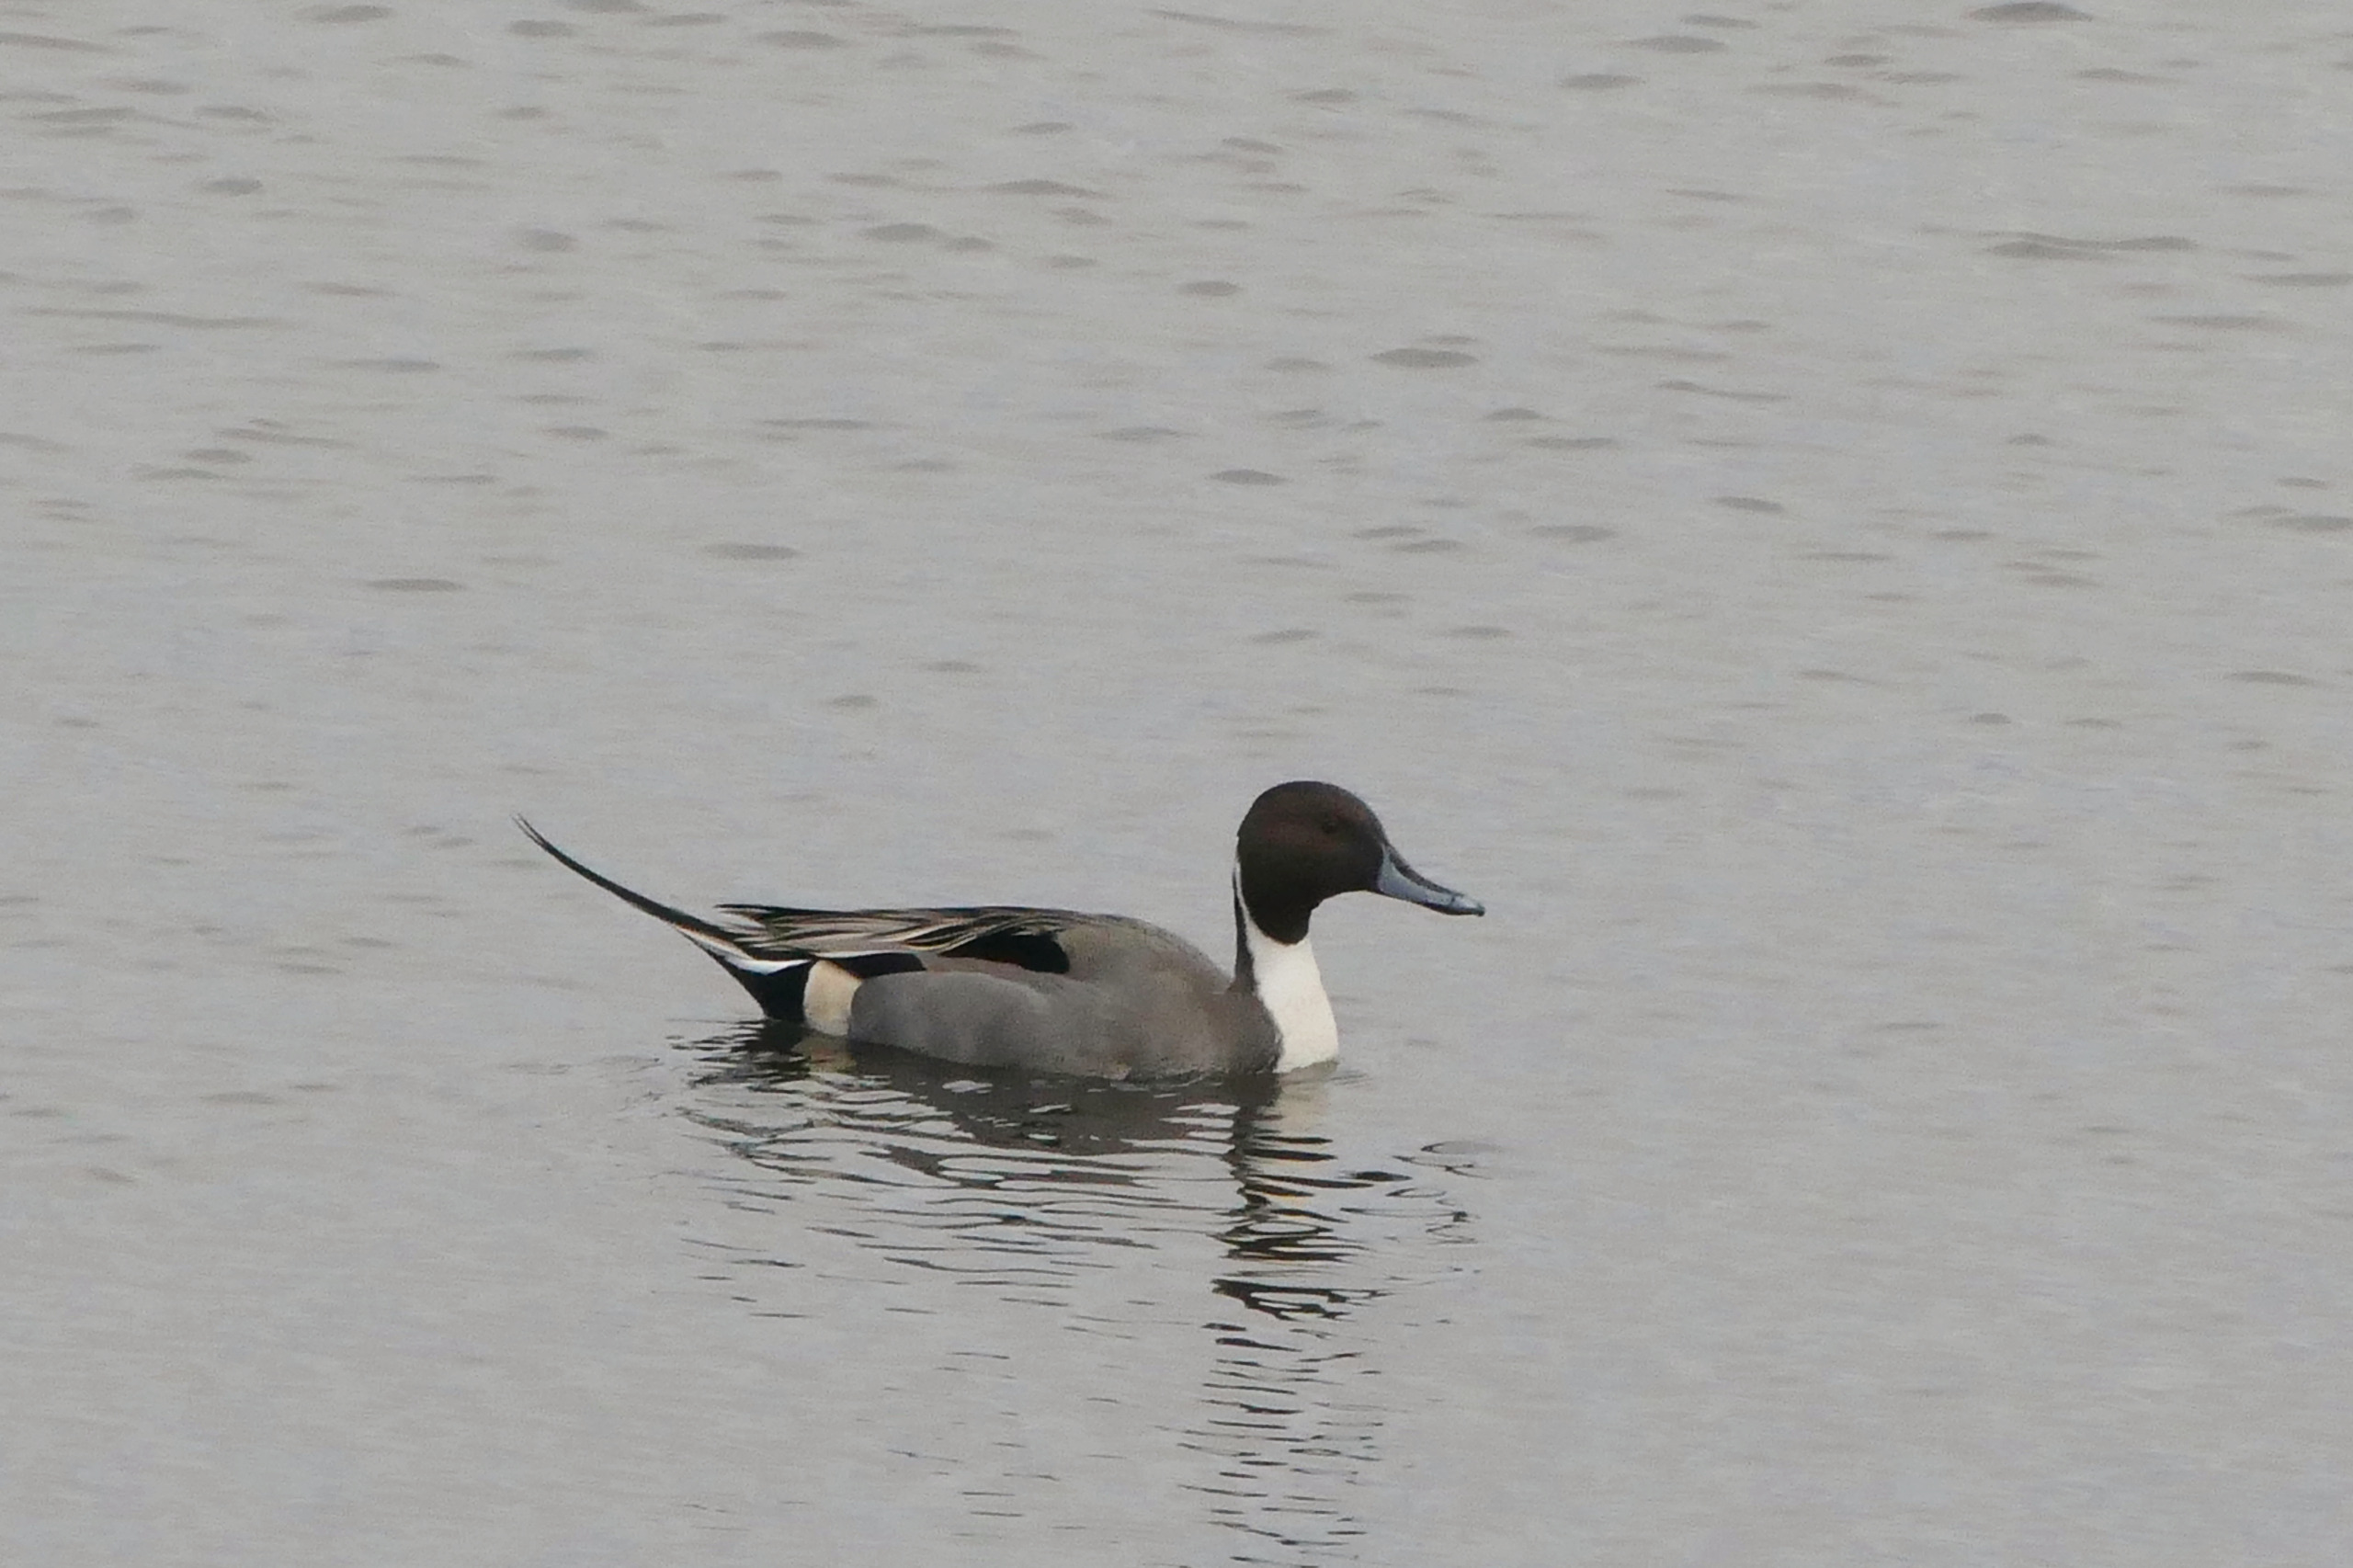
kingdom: Animalia
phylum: Chordata
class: Aves
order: Anseriformes
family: Anatidae
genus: Anas
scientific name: Anas acuta
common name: Spidsand
